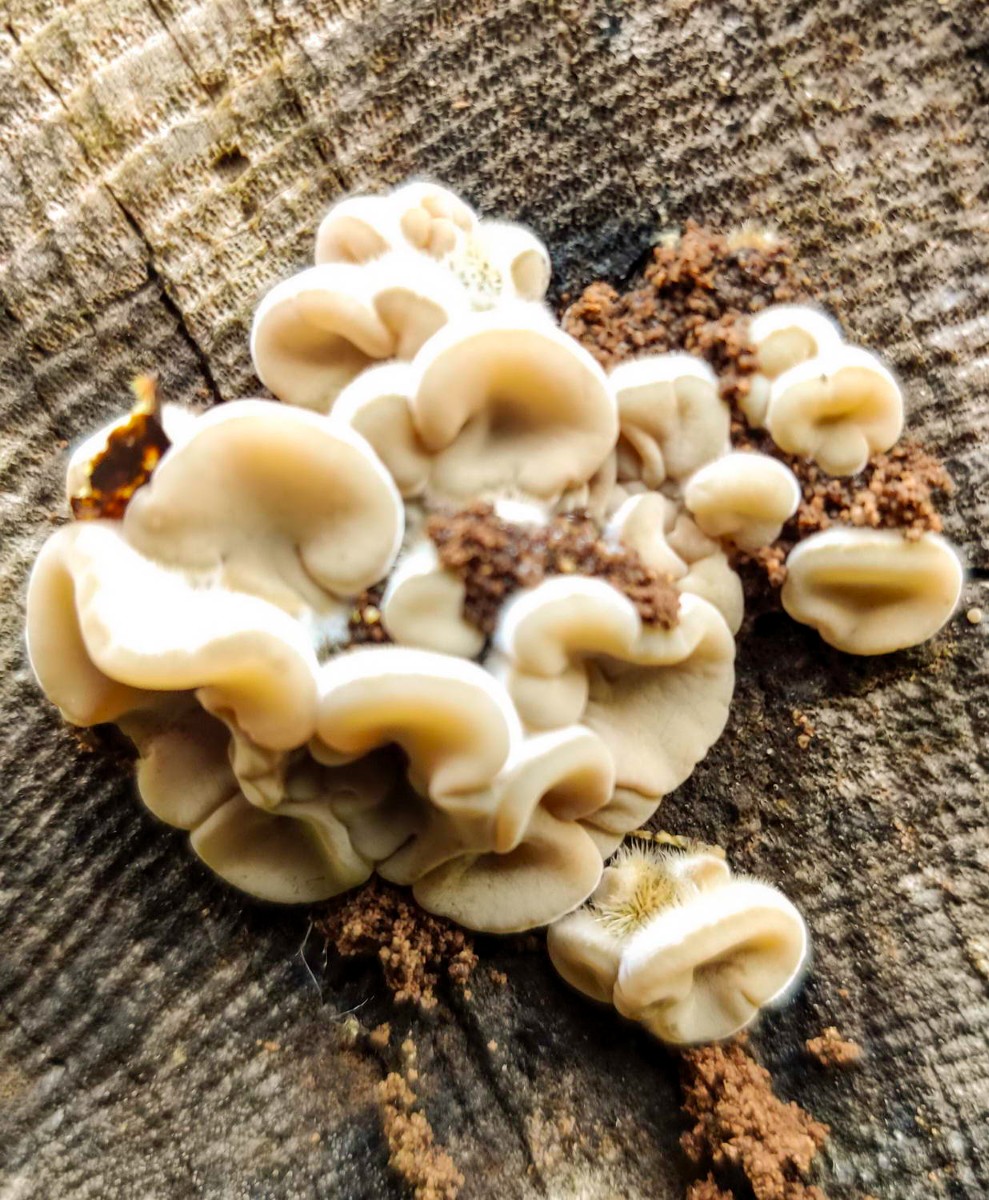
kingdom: Fungi
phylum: Basidiomycota
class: Agaricomycetes
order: Auriculariales
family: Auriculariaceae
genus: Auricularia
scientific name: Auricularia mesenterica
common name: håret judasøre
